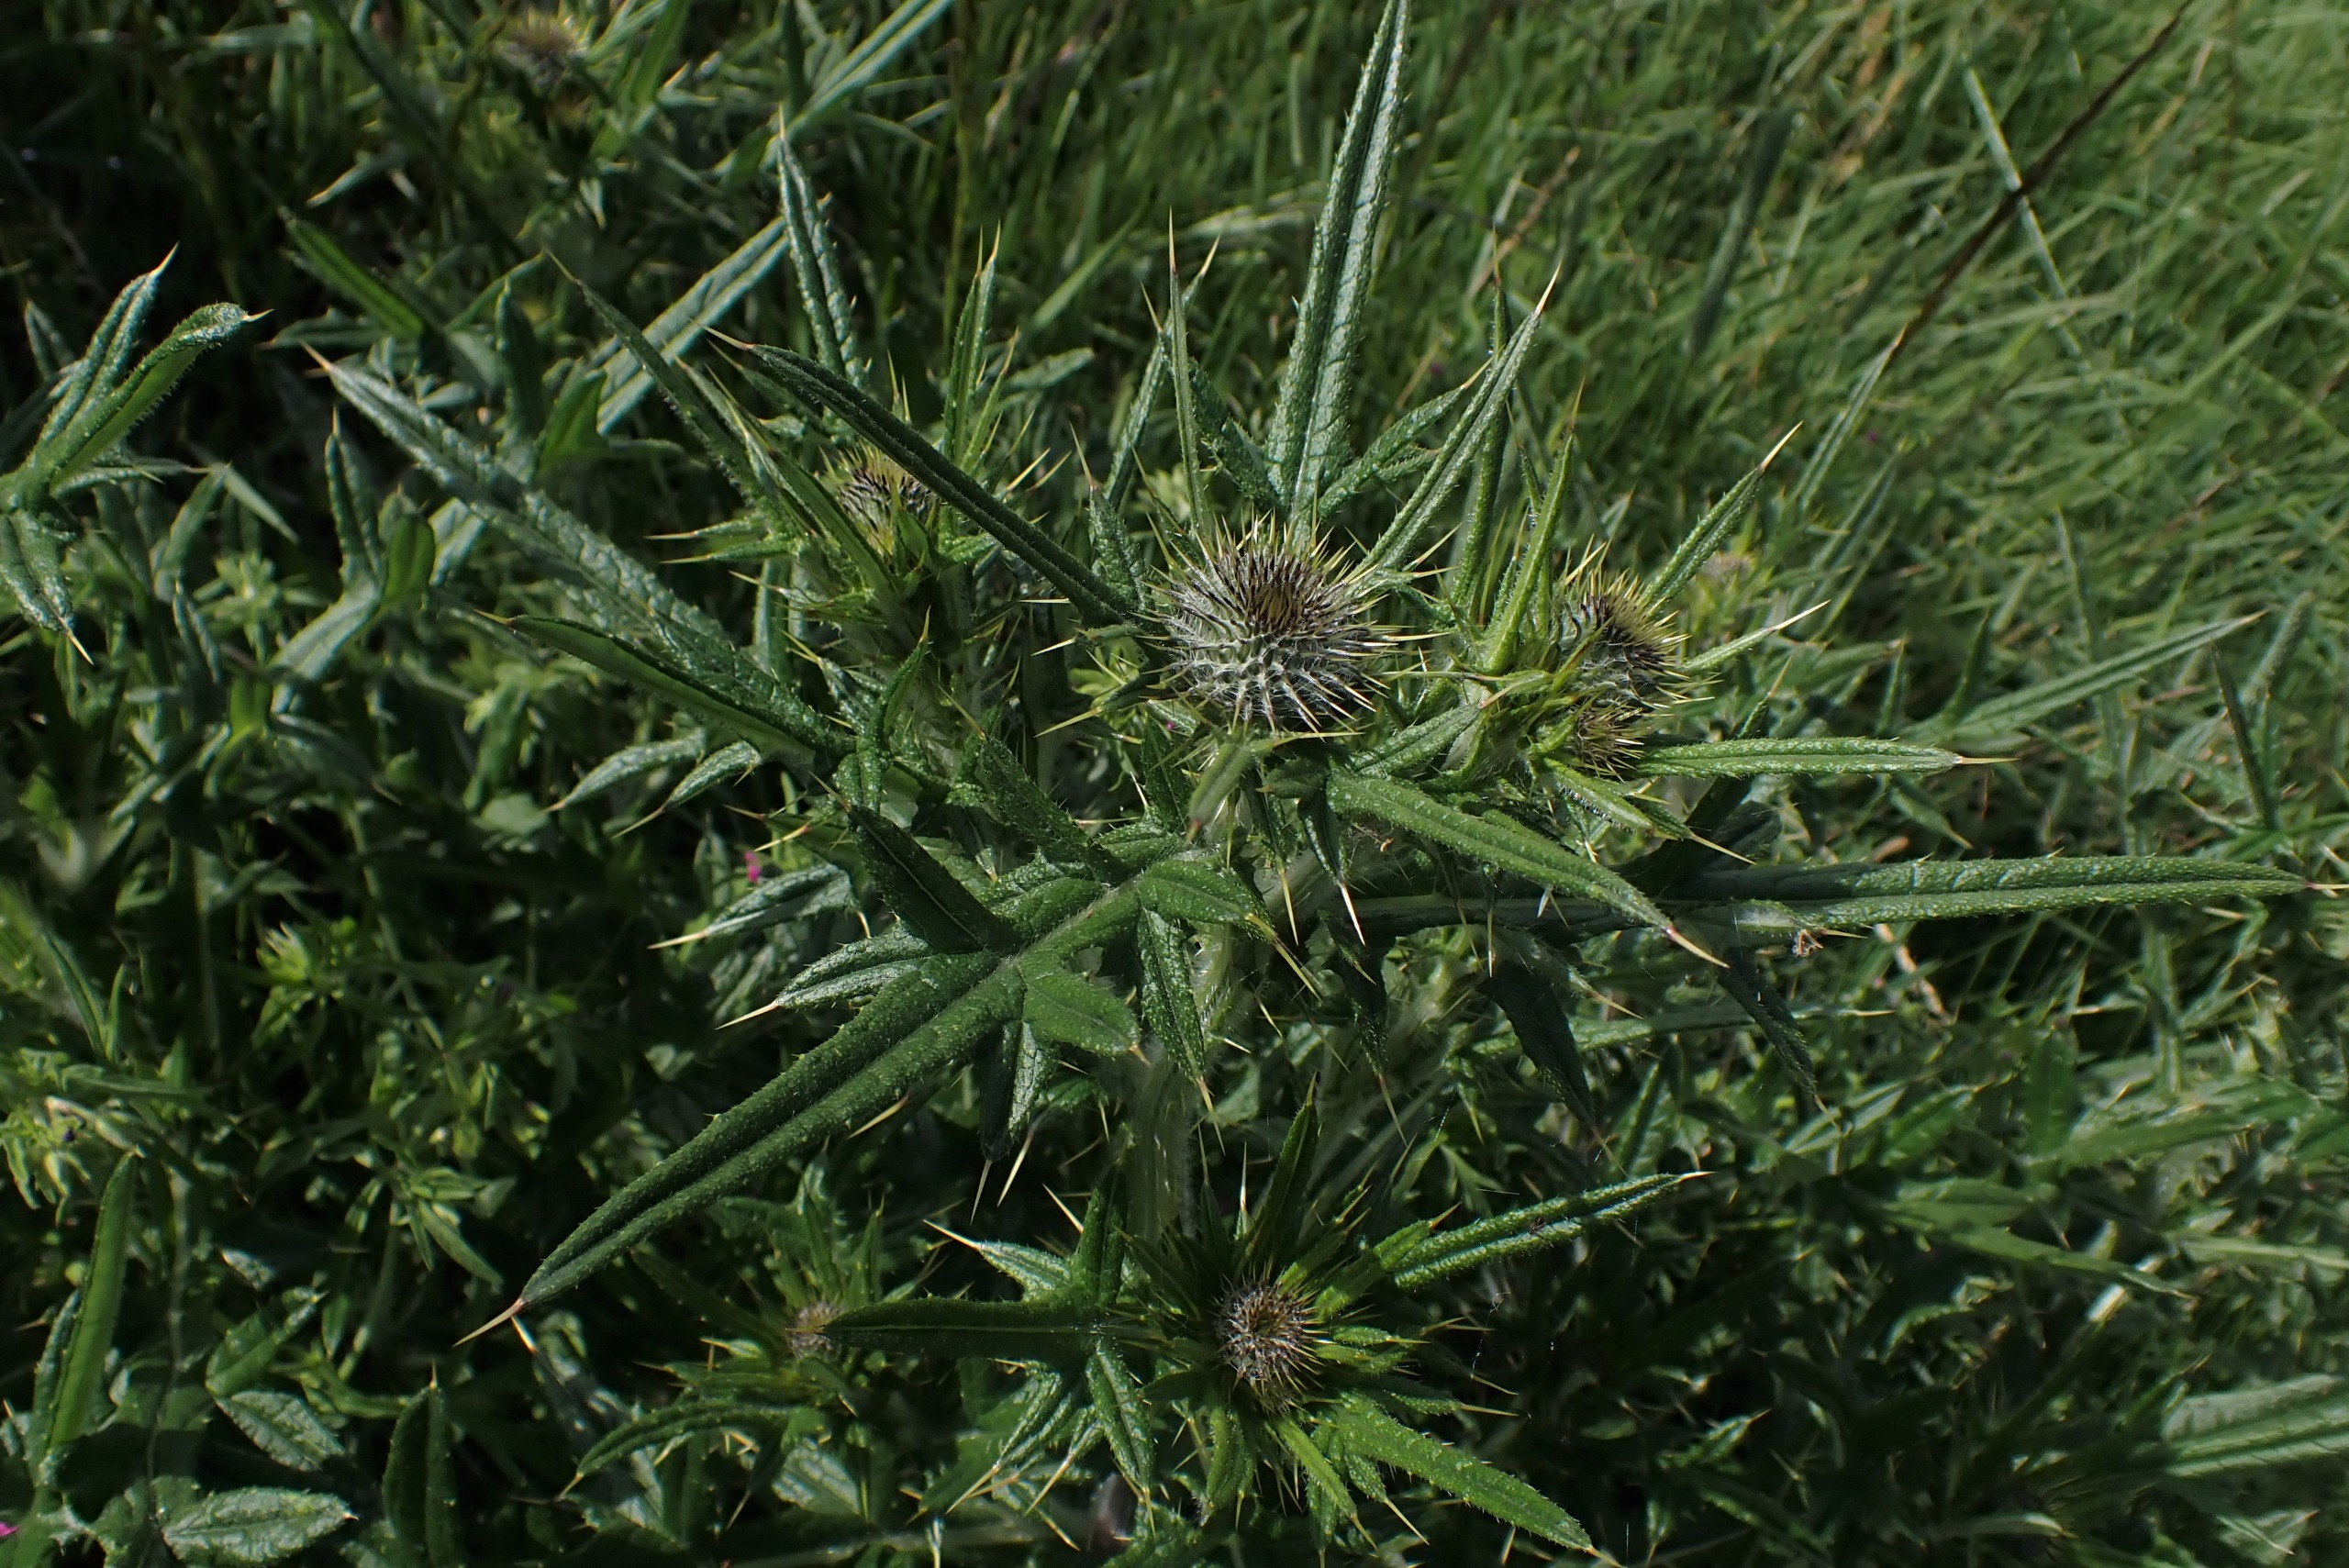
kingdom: Plantae
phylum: Tracheophyta
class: Magnoliopsida
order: Asterales
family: Asteraceae
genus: Cirsium
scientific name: Cirsium vulgare
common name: Horse-tidsel
